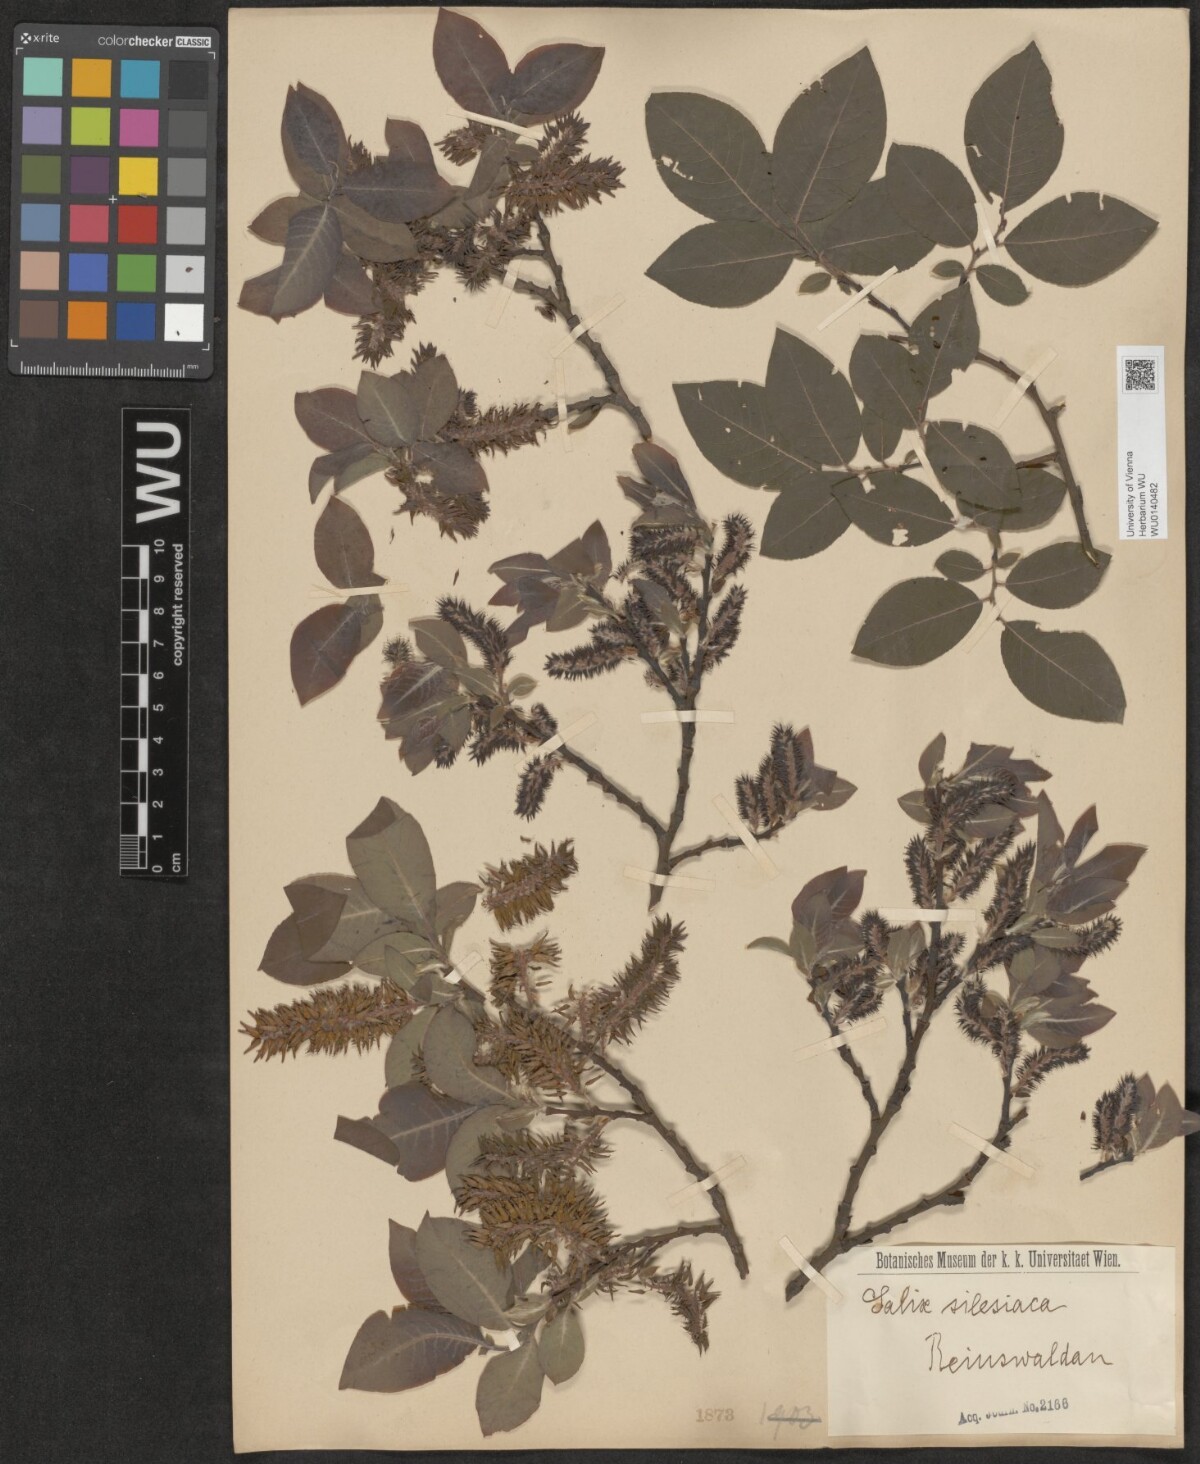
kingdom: Plantae
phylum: Tracheophyta
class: Magnoliopsida
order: Malpighiales
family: Salicaceae
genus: Salix
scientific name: Salix silesiaca
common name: Silesian willow
